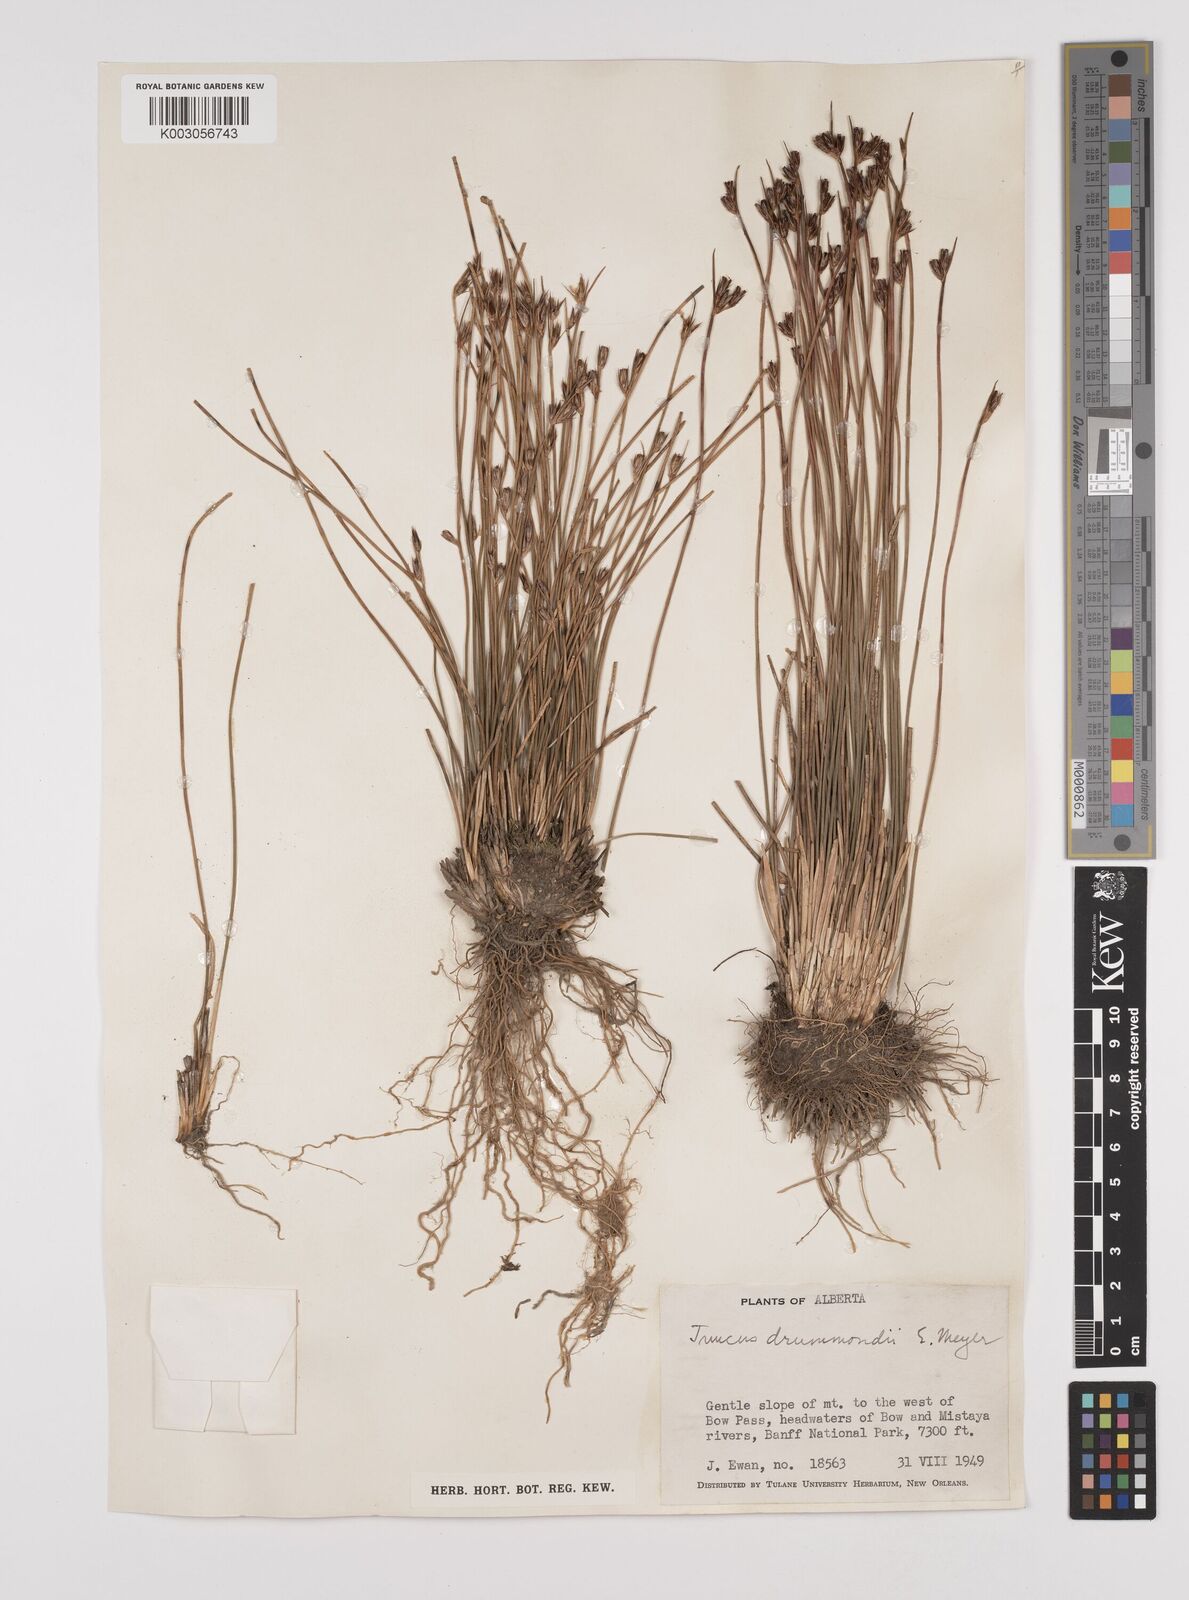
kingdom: Plantae
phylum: Tracheophyta
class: Liliopsida
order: Poales
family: Juncaceae
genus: Juncus
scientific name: Juncus drummondii
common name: Drummond's rush
